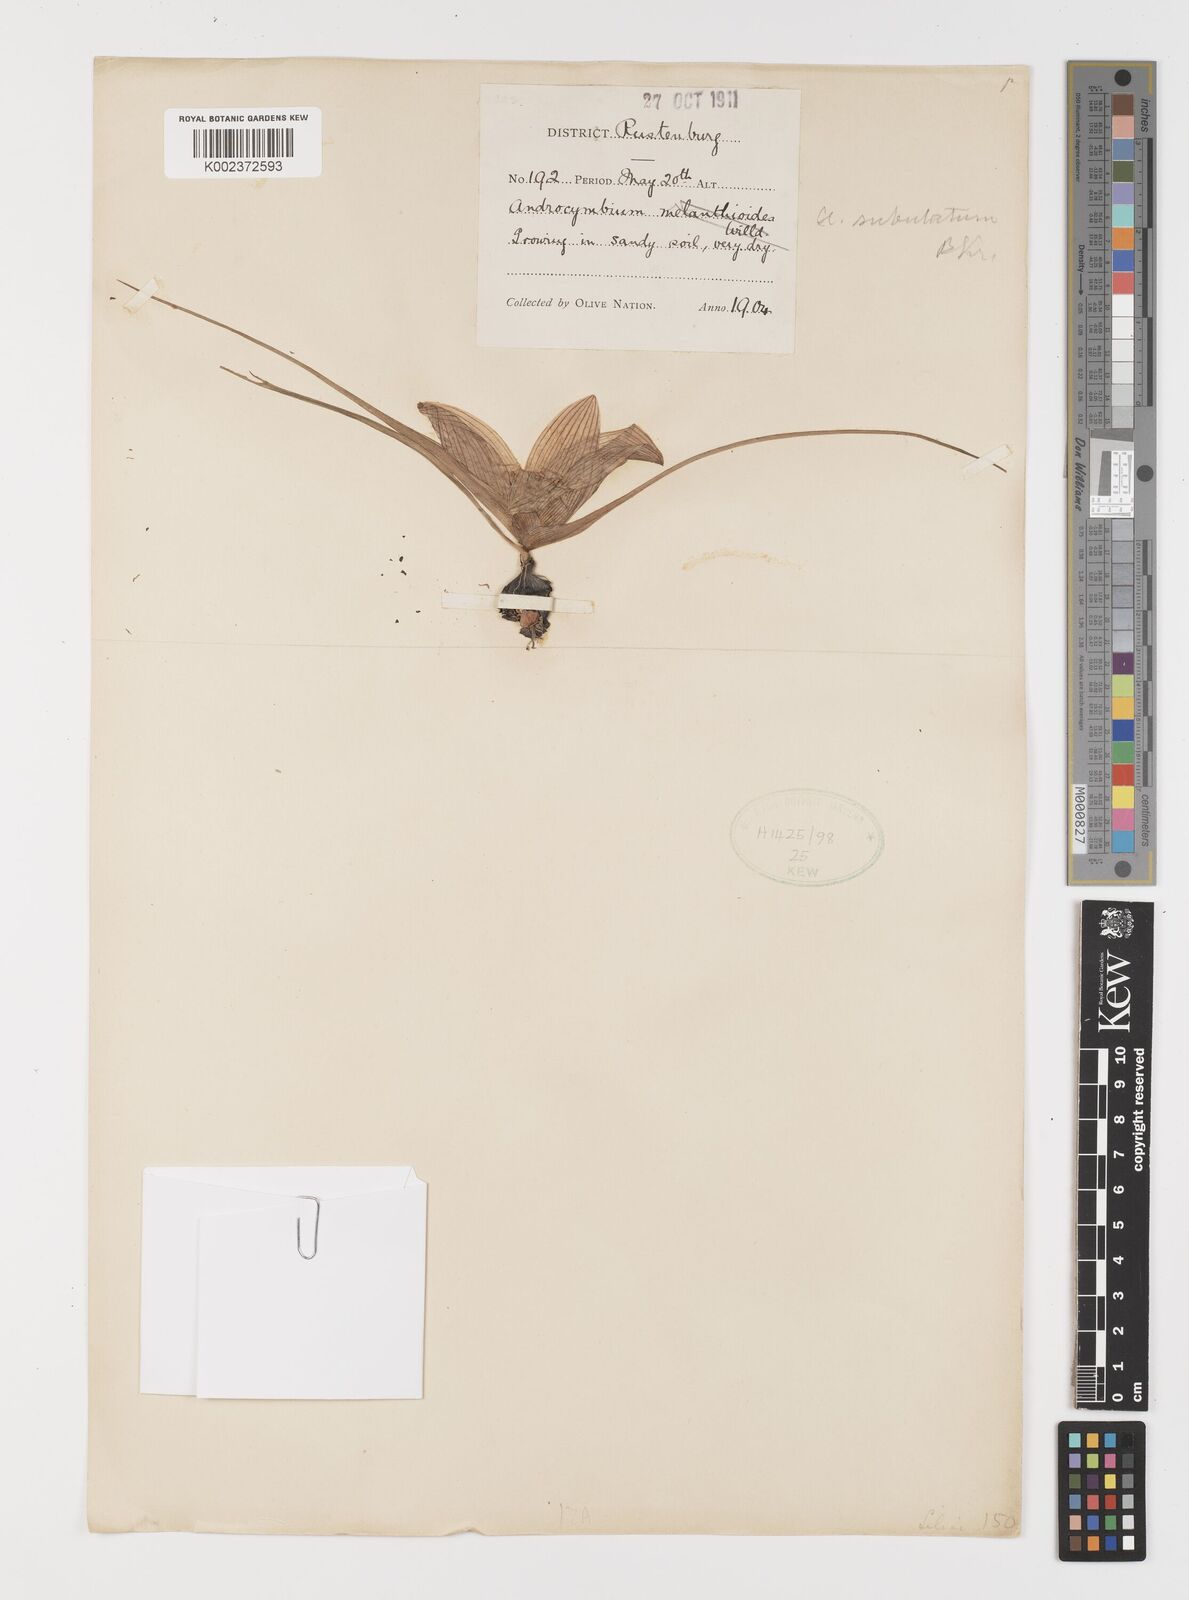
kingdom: Plantae
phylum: Tracheophyta
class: Liliopsida
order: Liliales
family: Colchicaceae
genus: Colchicum
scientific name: Colchicum melanthioides
